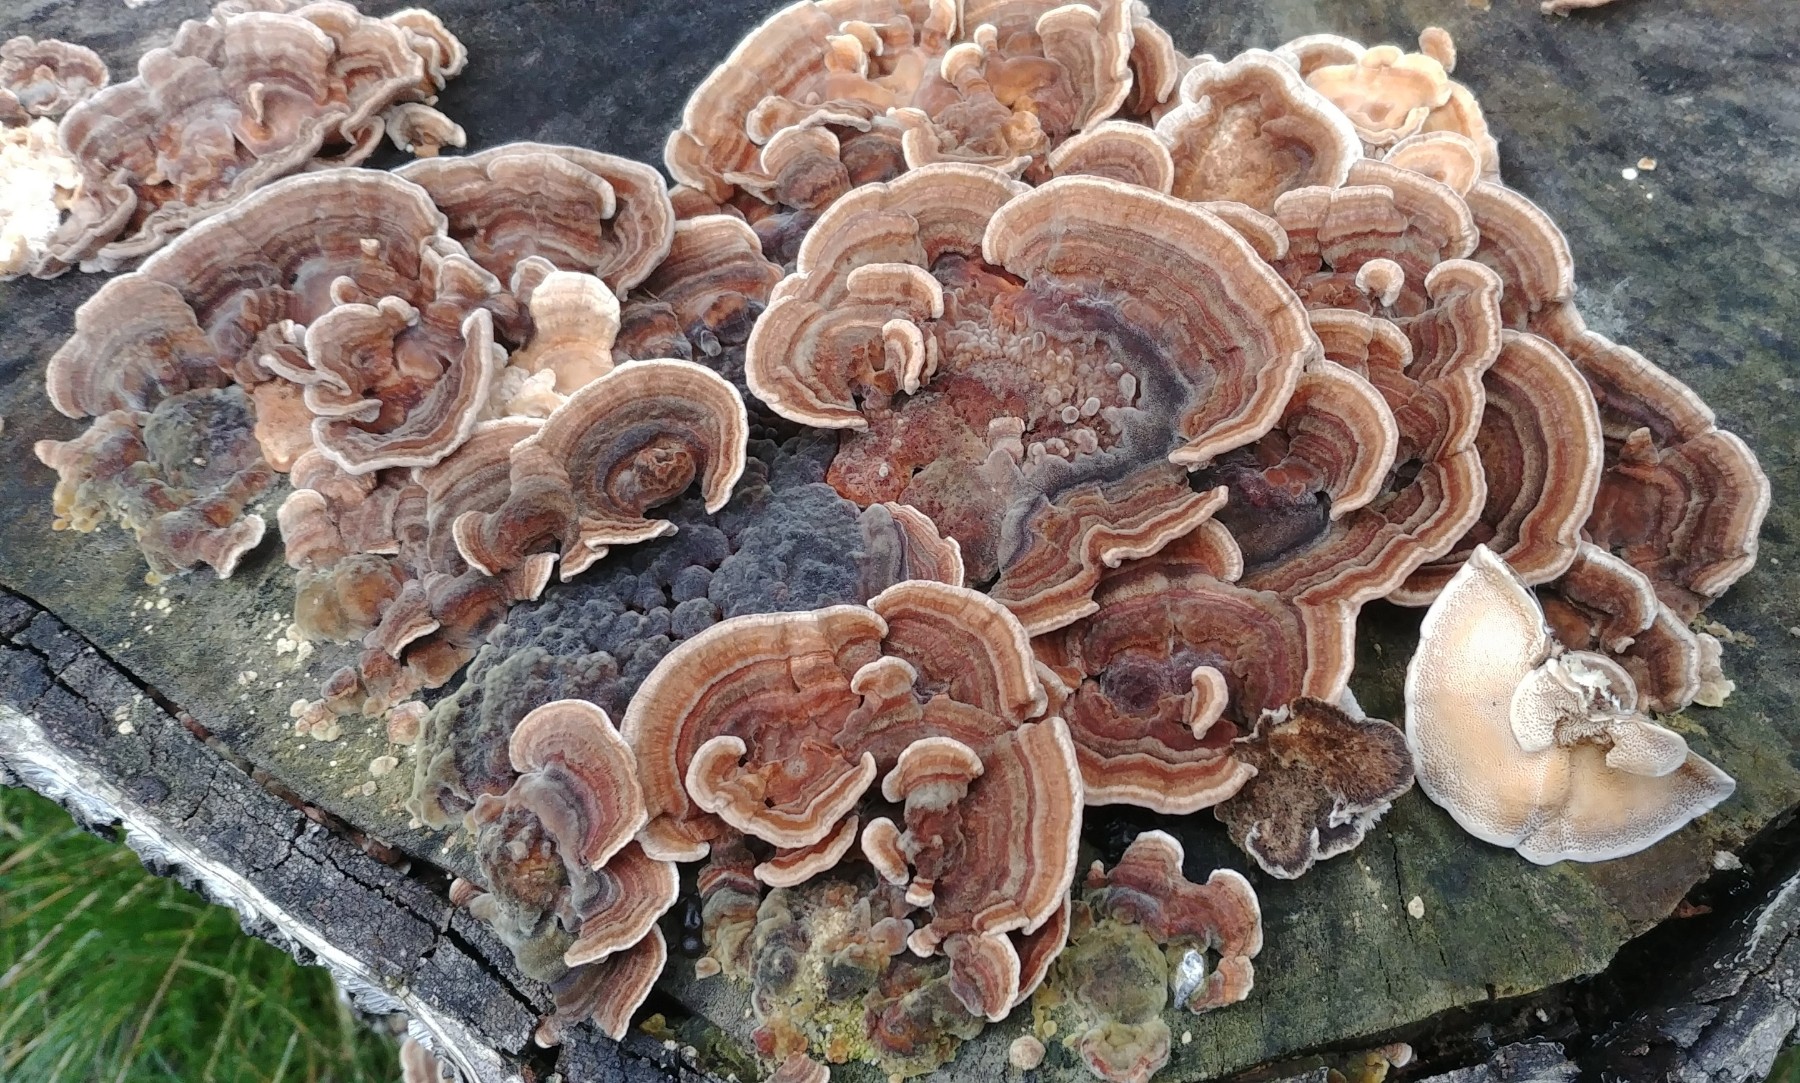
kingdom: Fungi
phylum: Basidiomycota
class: Agaricomycetes
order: Polyporales
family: Polyporaceae
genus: Trametes
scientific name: Trametes versicolor
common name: broget læderporesvamp
